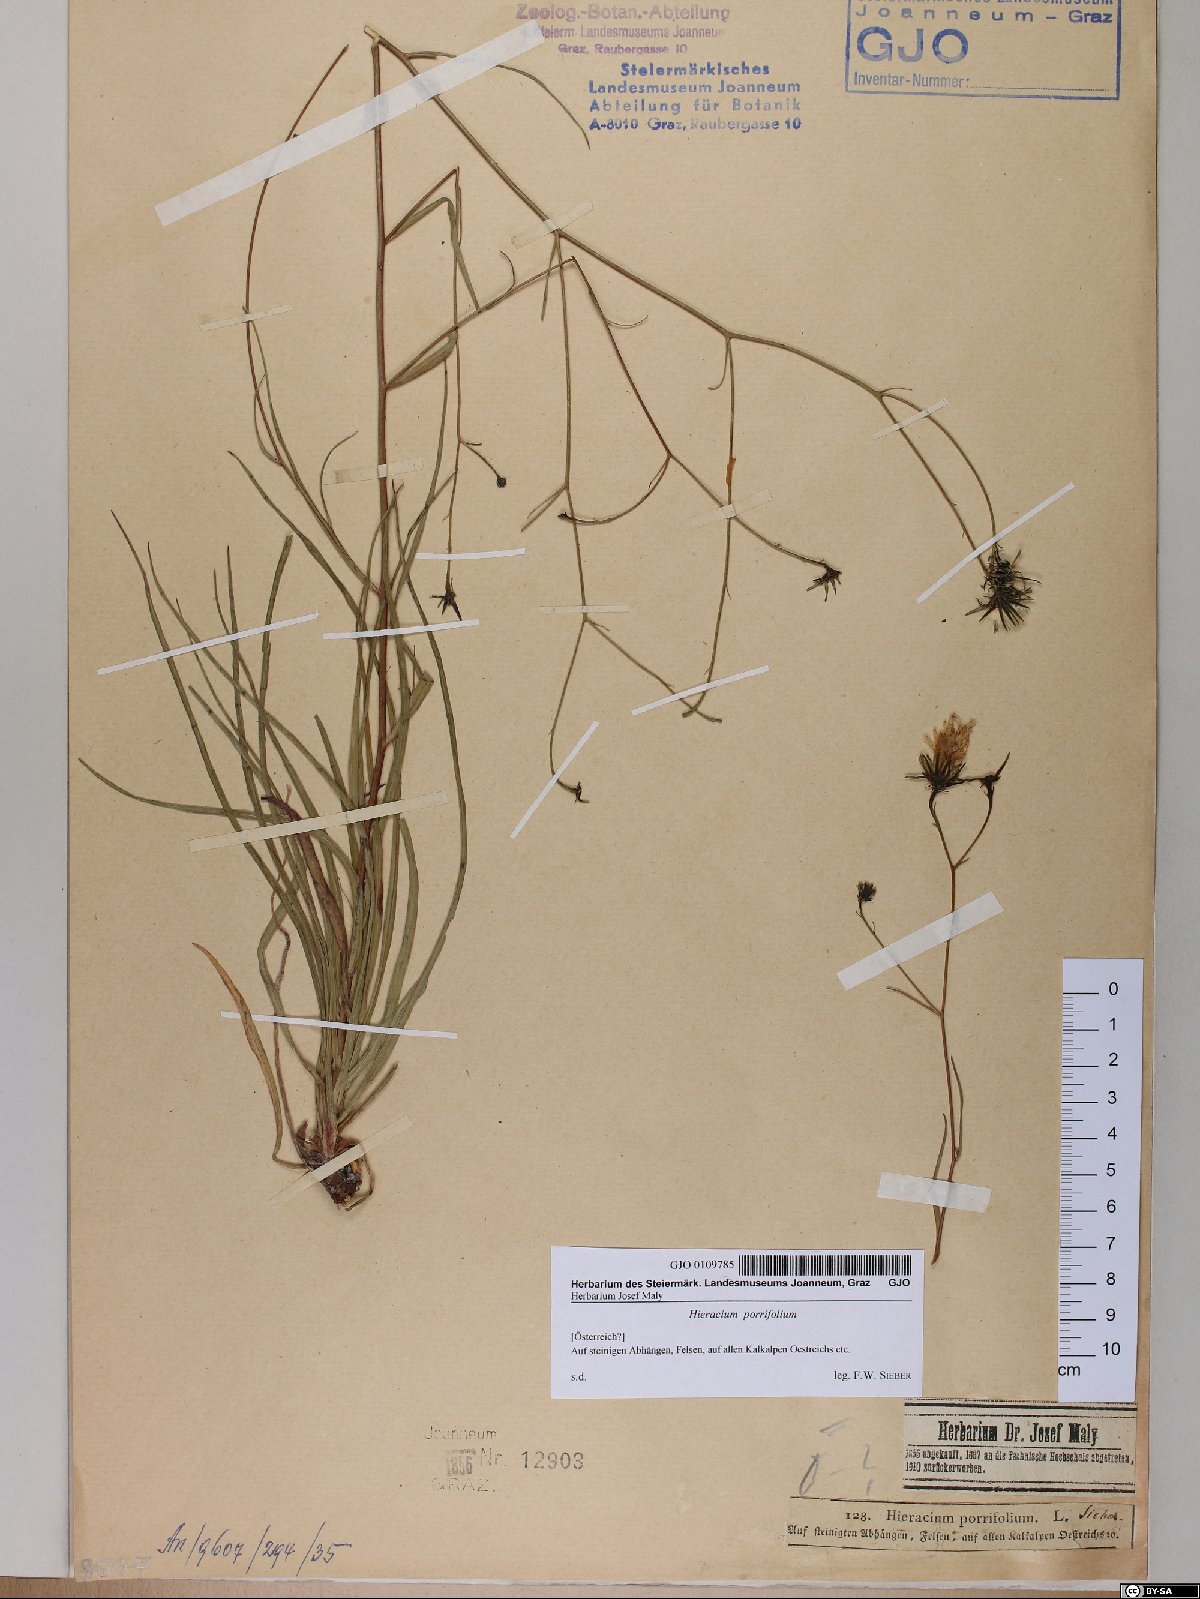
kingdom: Plantae
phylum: Tracheophyta
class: Magnoliopsida
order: Asterales
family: Asteraceae
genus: Hieracium
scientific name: Hieracium porrifolium
